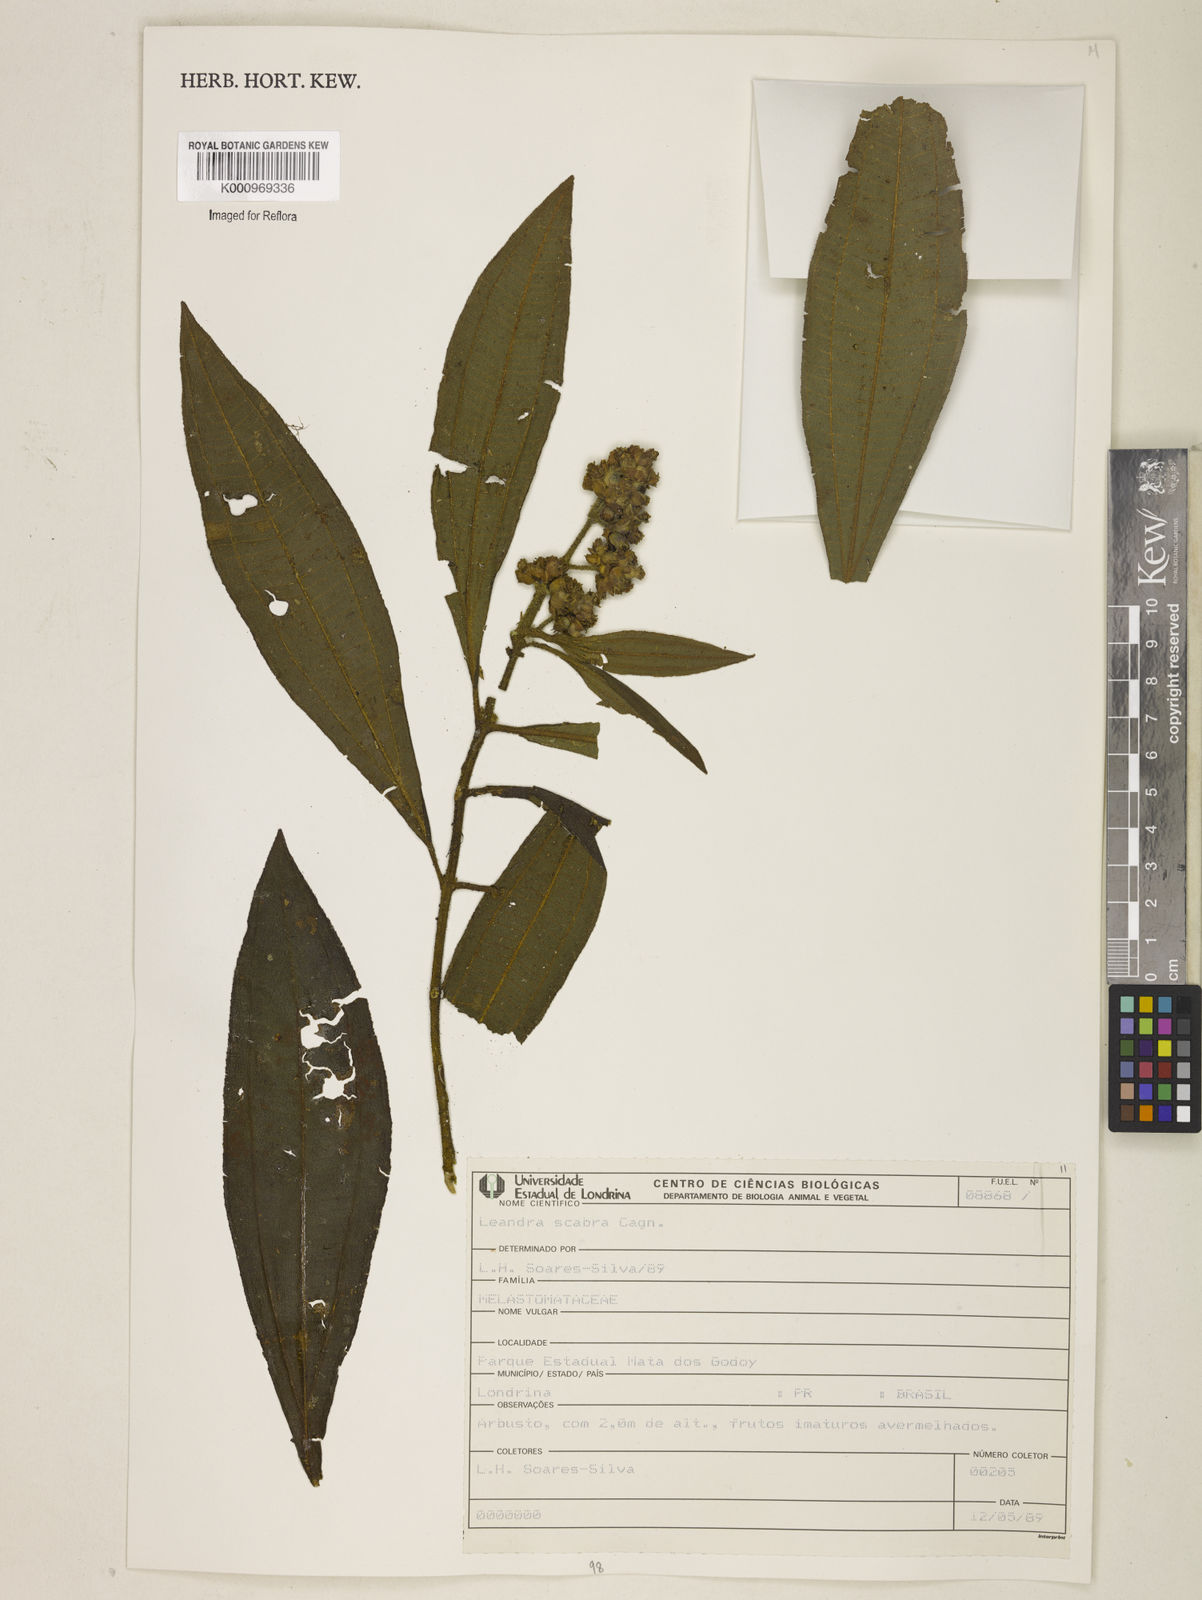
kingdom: Plantae
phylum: Tracheophyta
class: Magnoliopsida
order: Myrtales
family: Melastomataceae
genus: Miconia
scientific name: Miconia melastomoides
